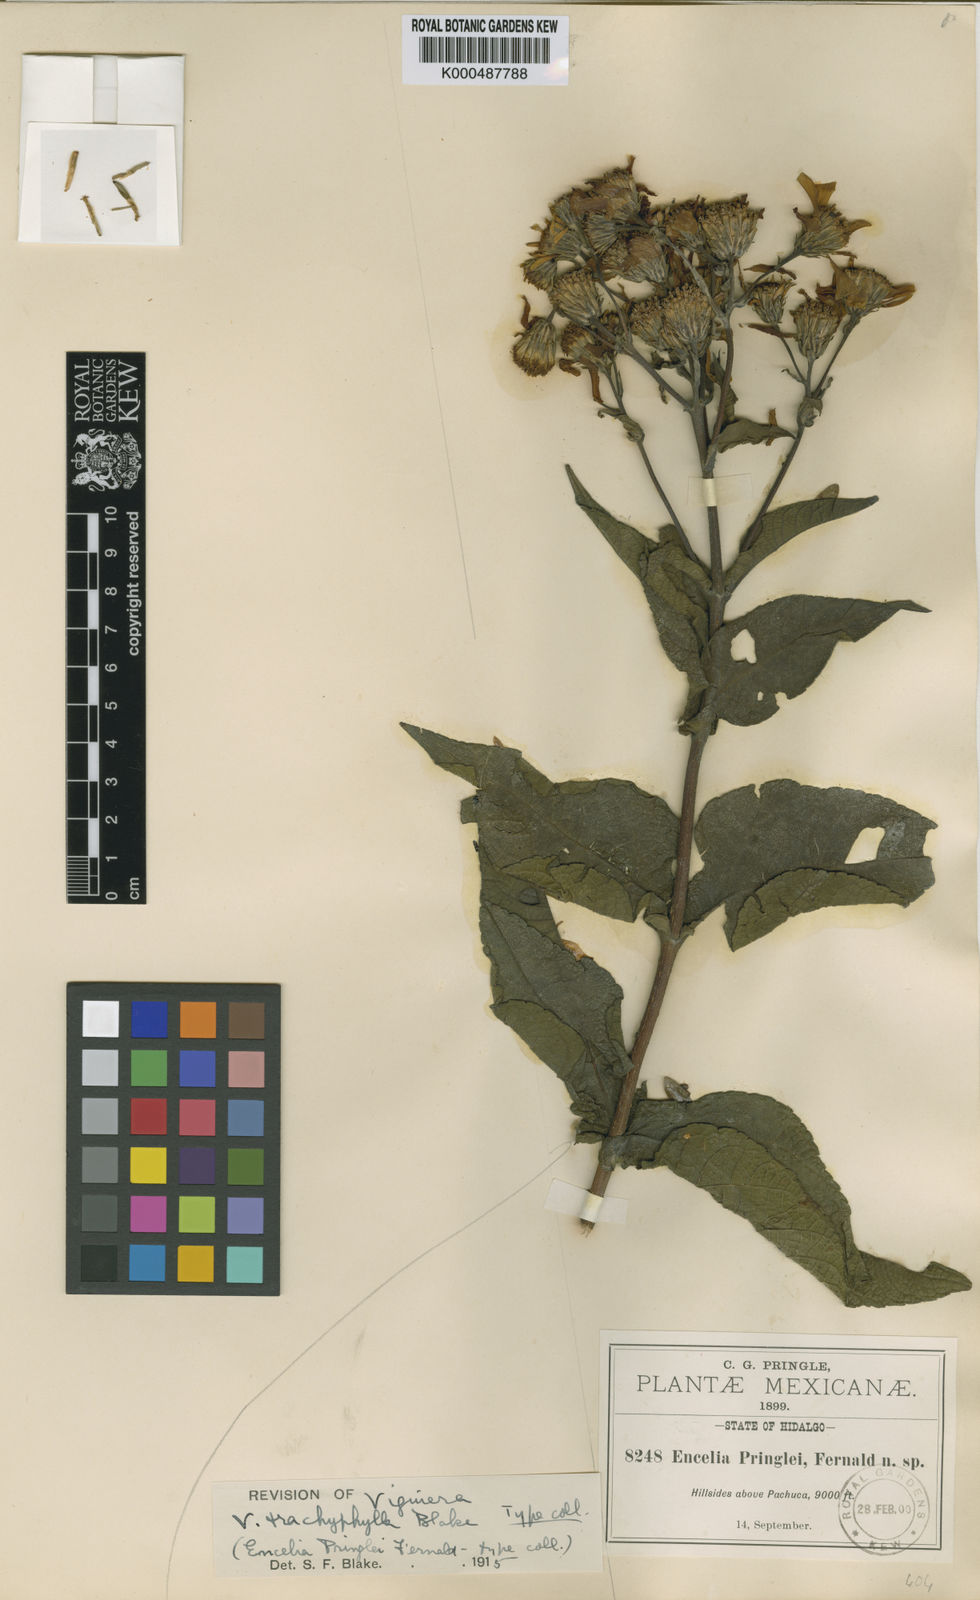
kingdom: Plantae
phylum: Tracheophyta
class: Magnoliopsida
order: Asterales
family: Asteraceae
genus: Dendroviguiera
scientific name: Dendroviguiera pringlei
